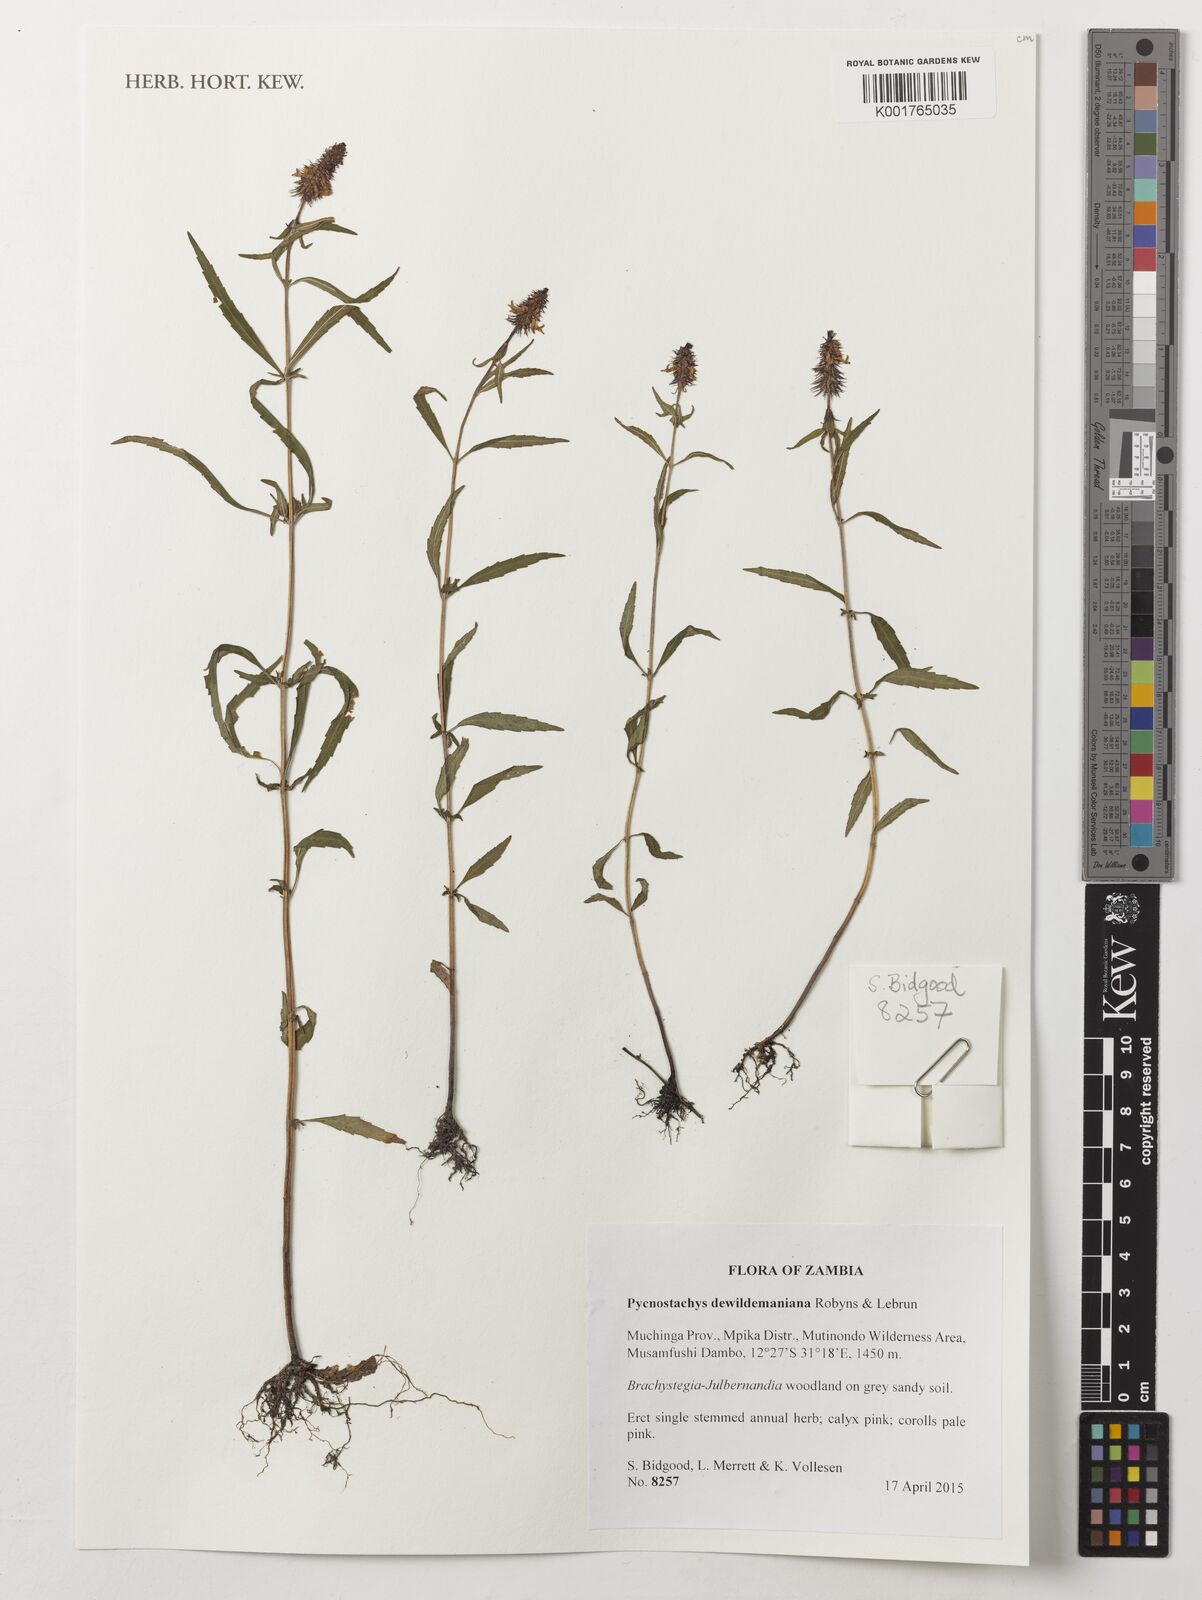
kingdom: Plantae
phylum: Tracheophyta
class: Magnoliopsida
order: Lamiales
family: Lamiaceae
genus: Coleus
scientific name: Coleus dewildemanianus
